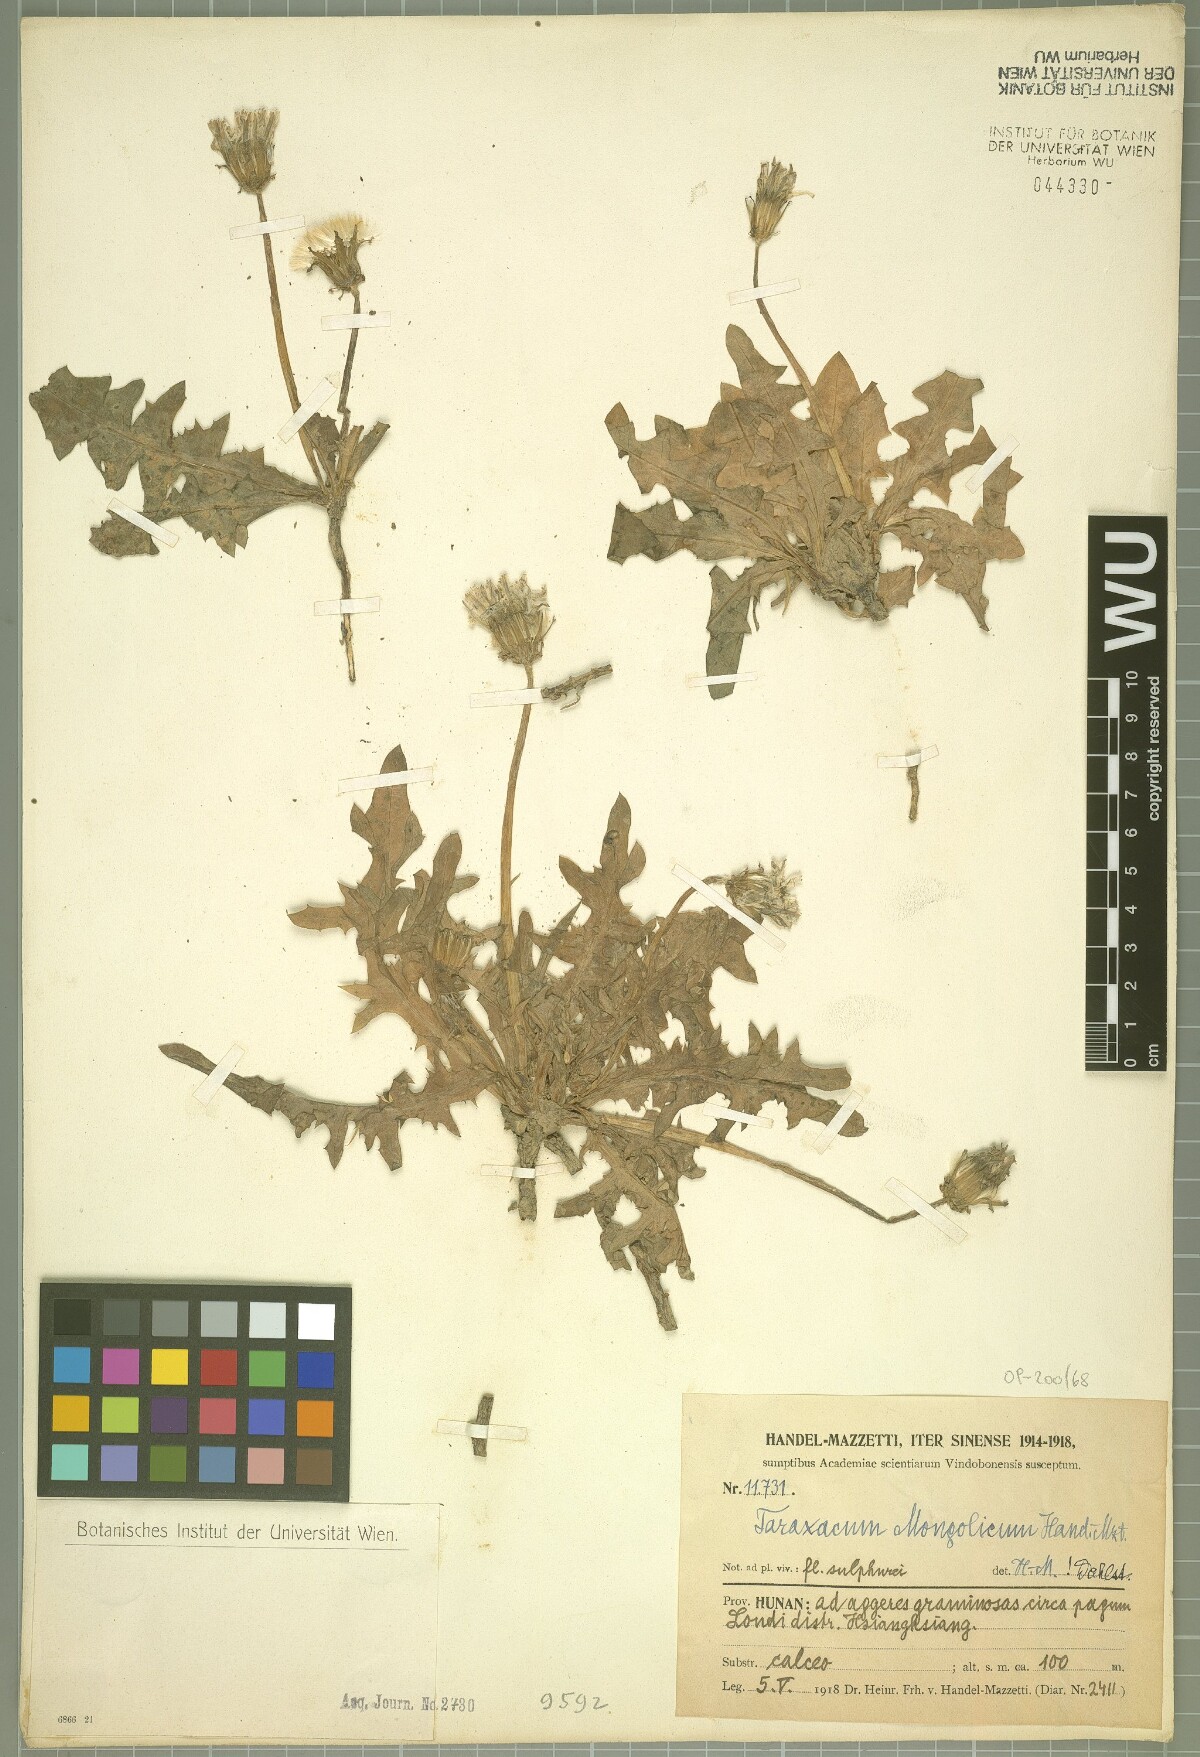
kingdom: Plantae
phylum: Tracheophyta
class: Magnoliopsida
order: Asterales
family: Asteraceae
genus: Taraxacum
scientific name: Taraxacum mongolicum
